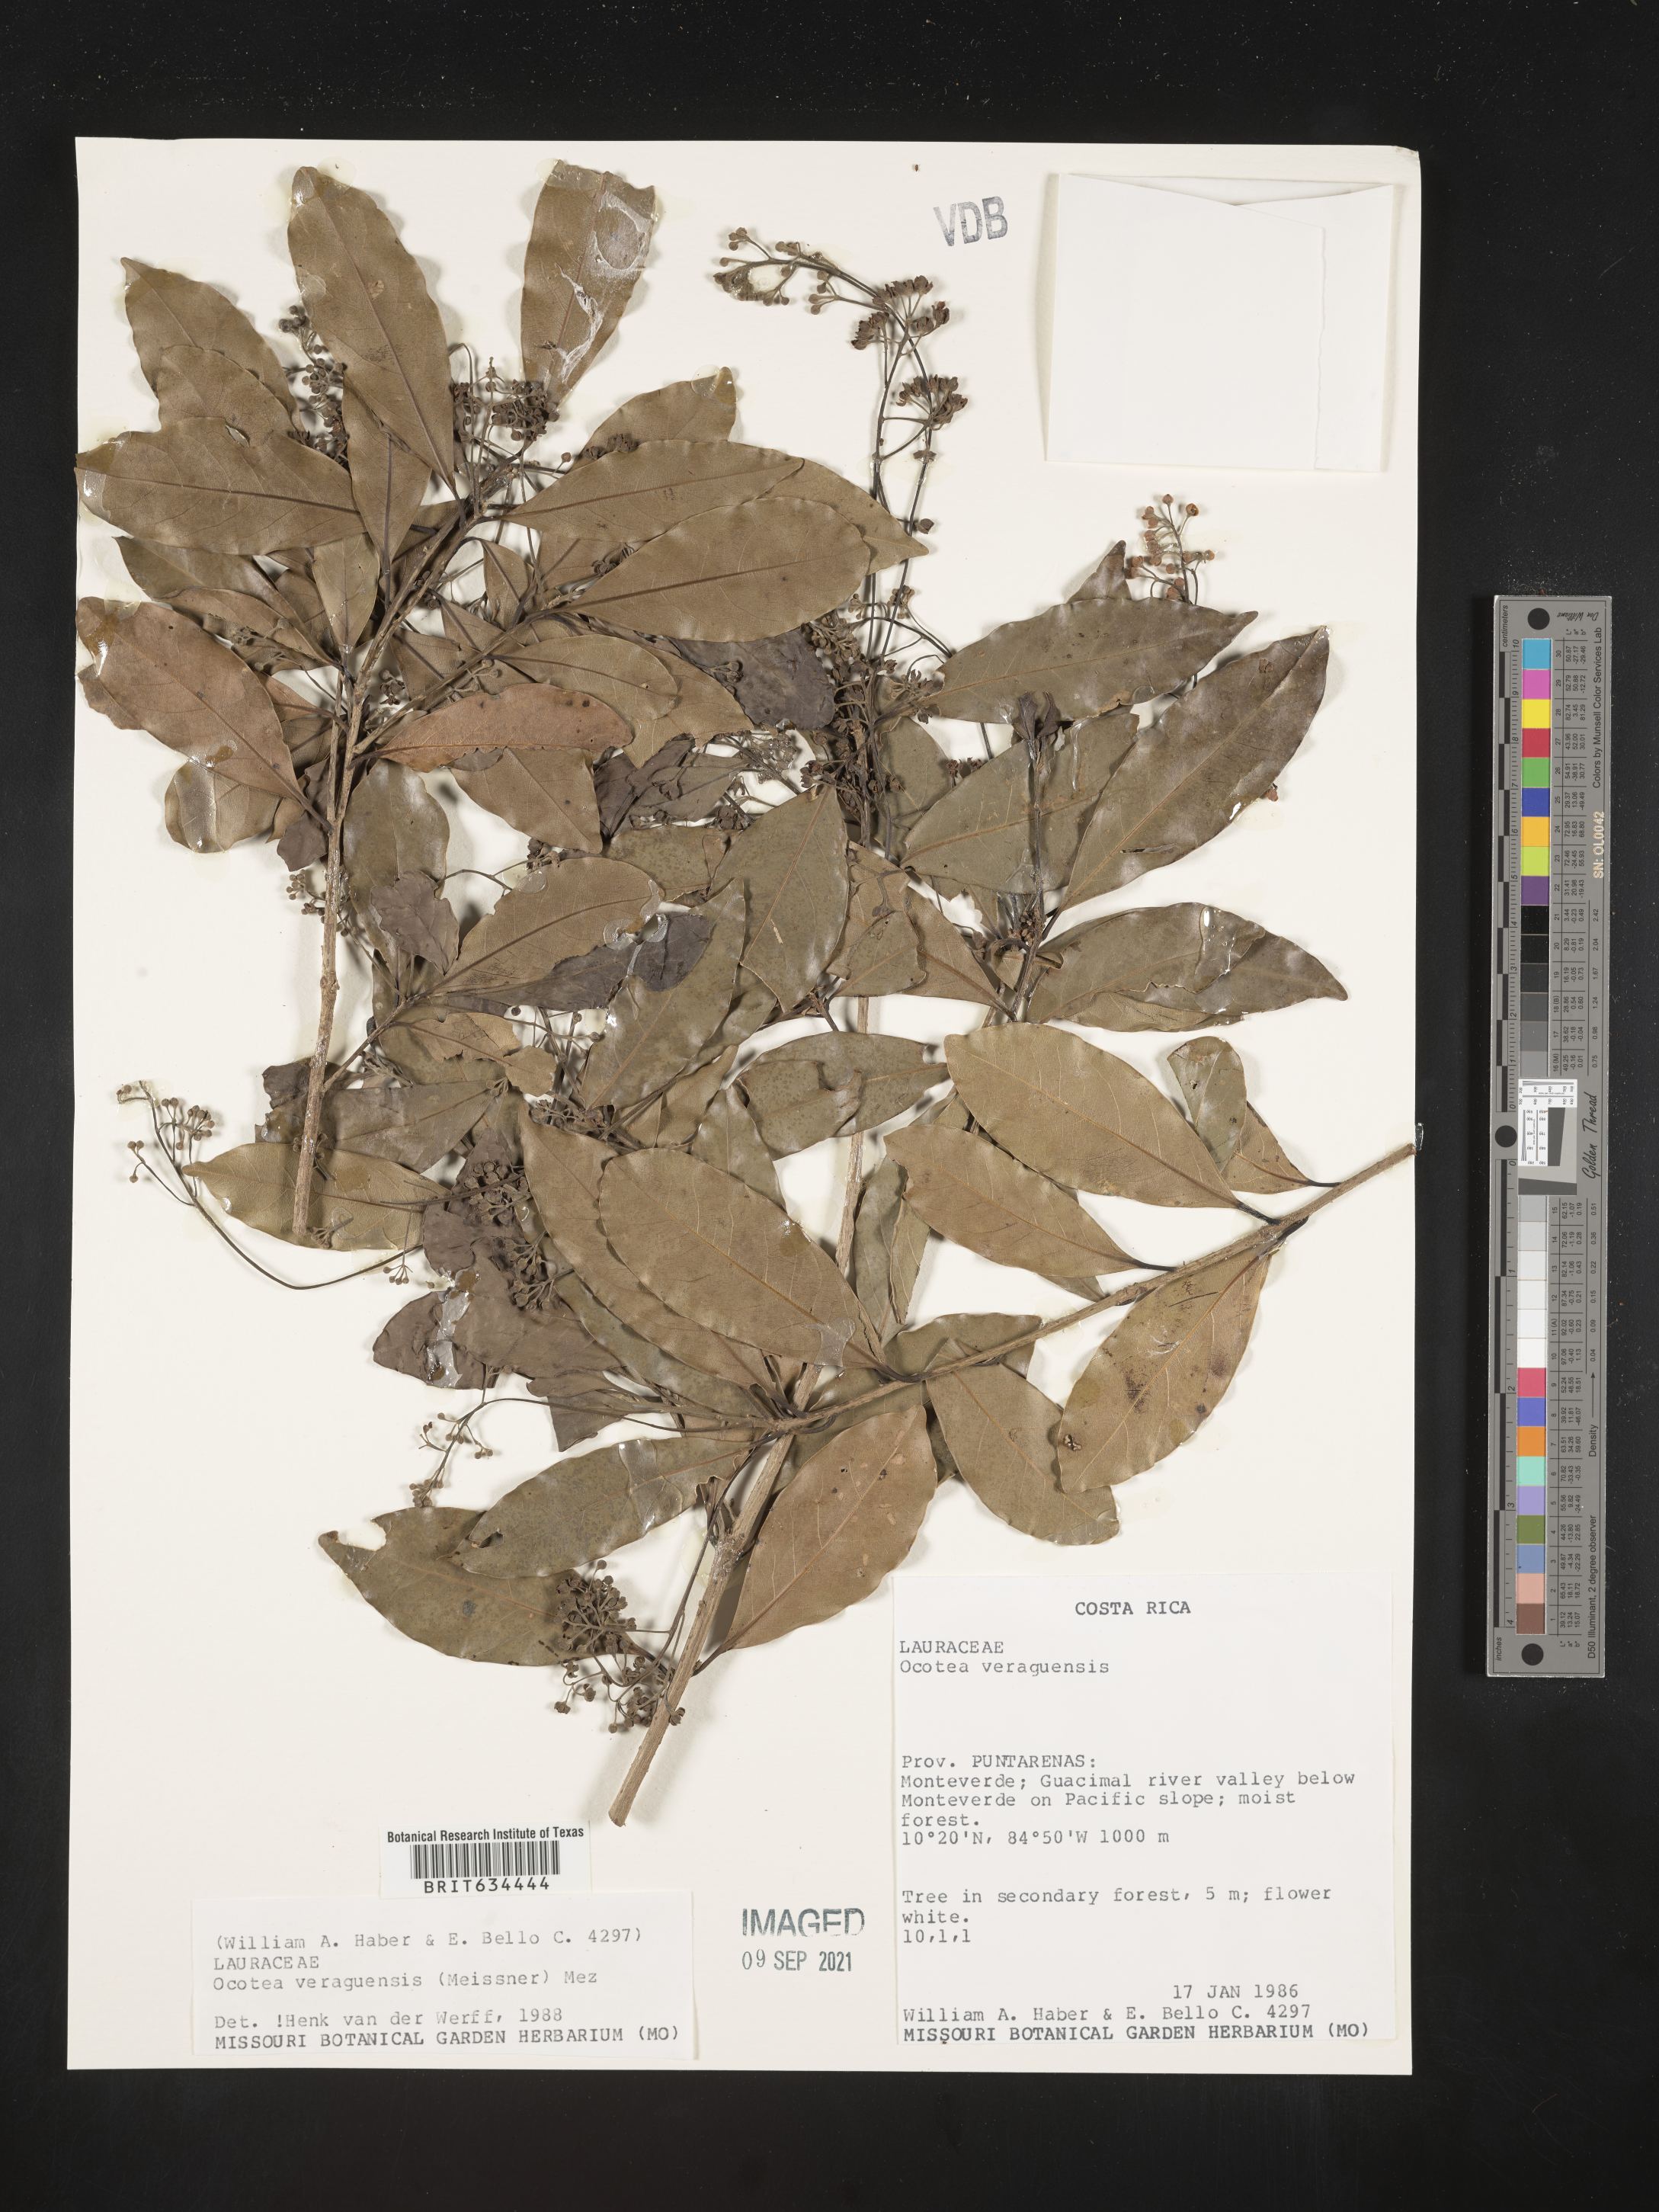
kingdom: Plantae
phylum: Tracheophyta
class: Magnoliopsida
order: Laurales
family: Lauraceae
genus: Ocotea
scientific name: Ocotea
